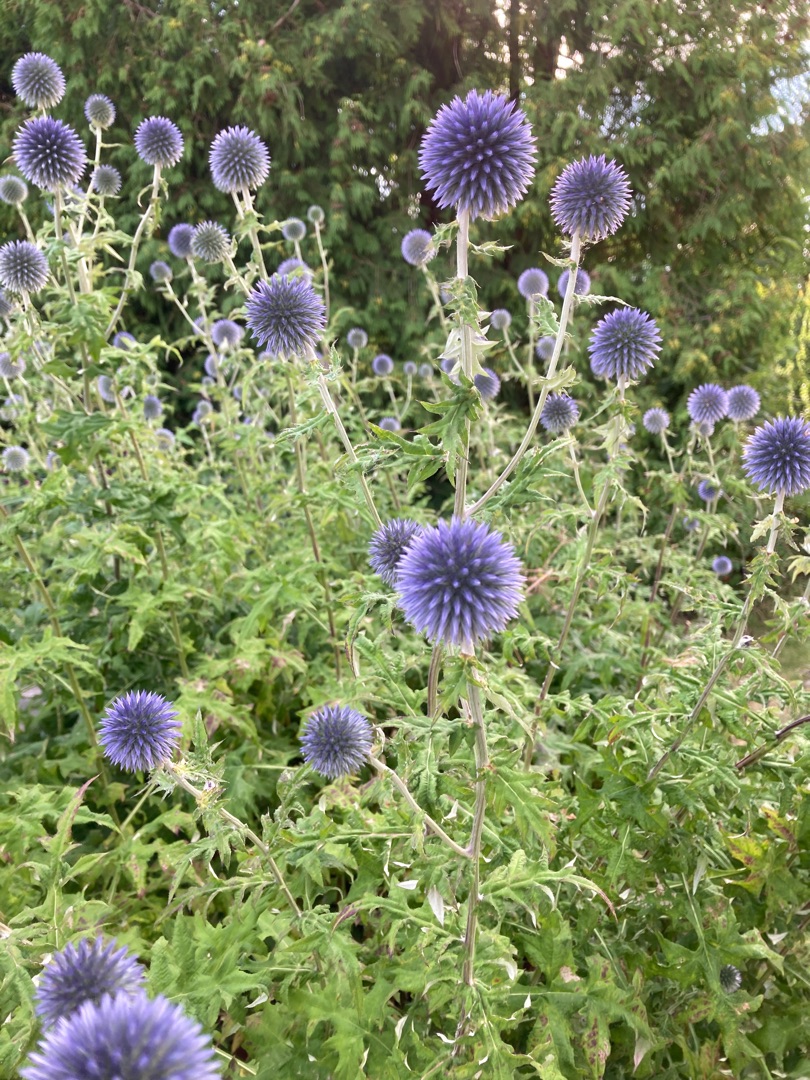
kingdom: Plantae
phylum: Tracheophyta
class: Magnoliopsida
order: Asterales
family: Asteraceae
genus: Echinops
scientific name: Echinops bannaticus
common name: Blå tidselkugle
